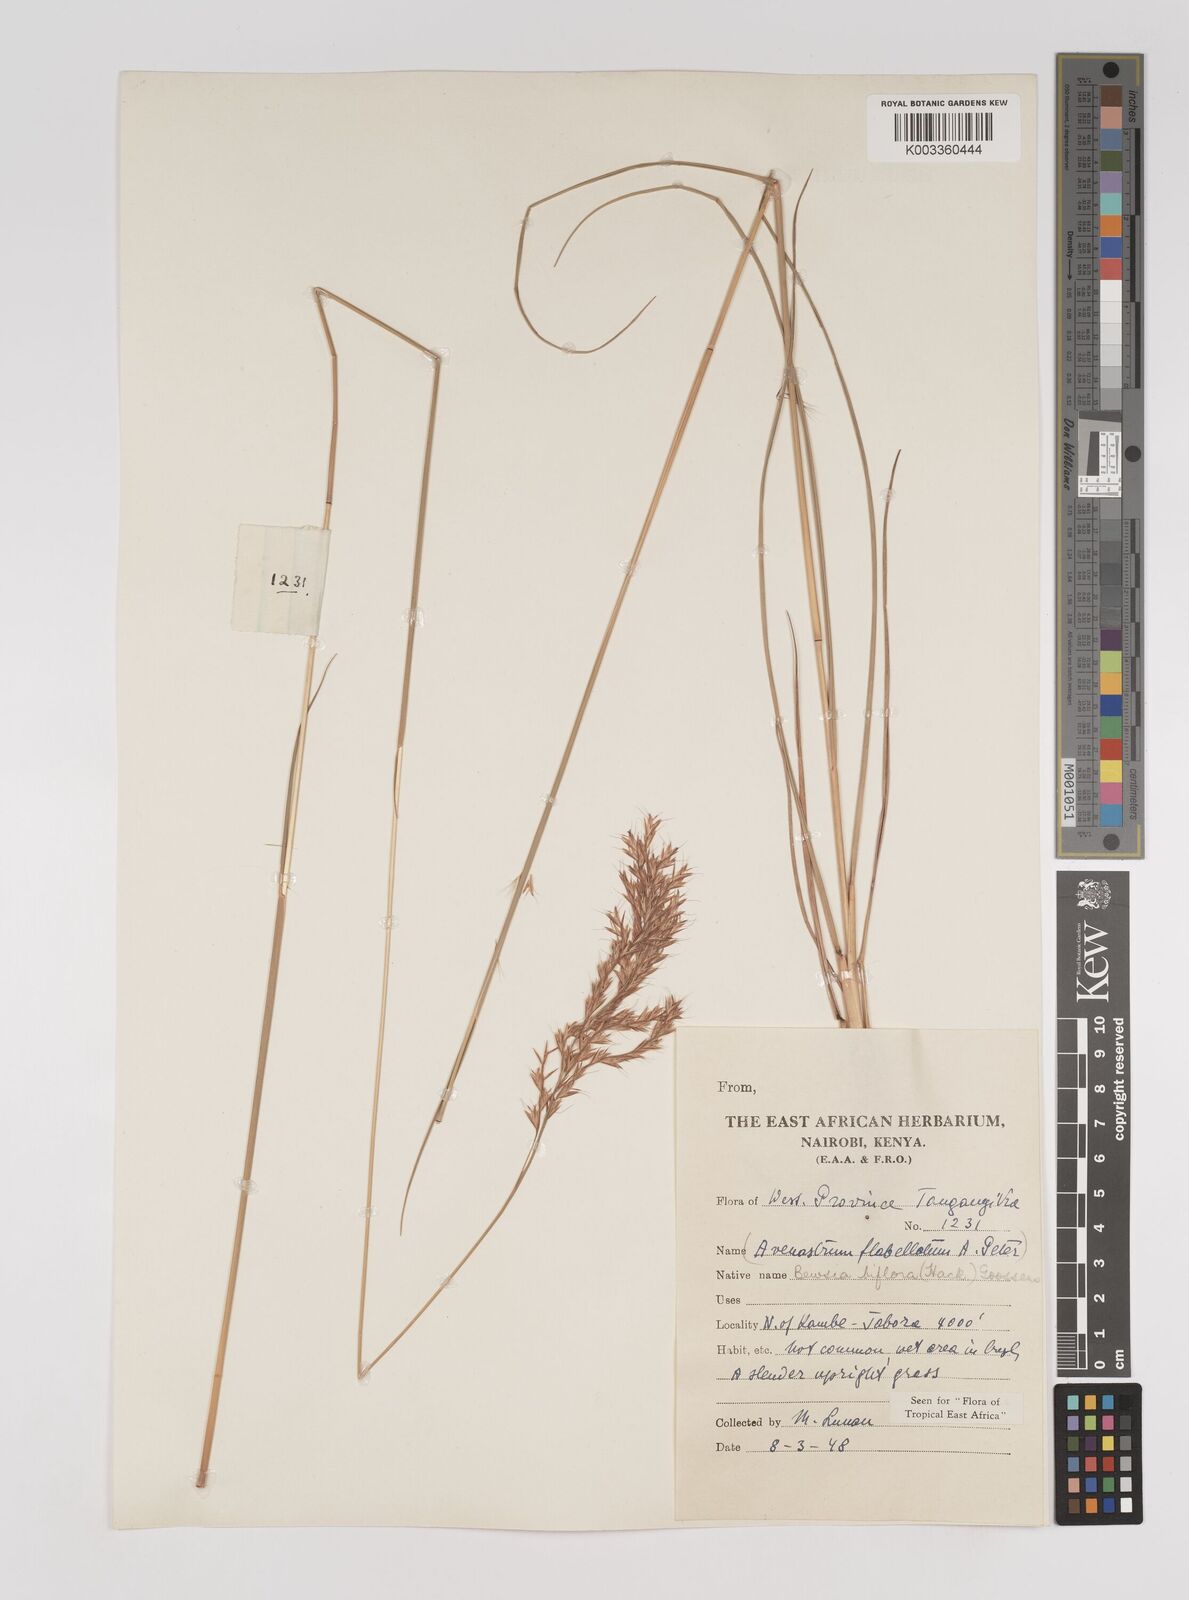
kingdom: Plantae
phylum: Tracheophyta
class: Liliopsida
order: Poales
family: Poaceae
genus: Bewsia
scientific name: Bewsia biflora
